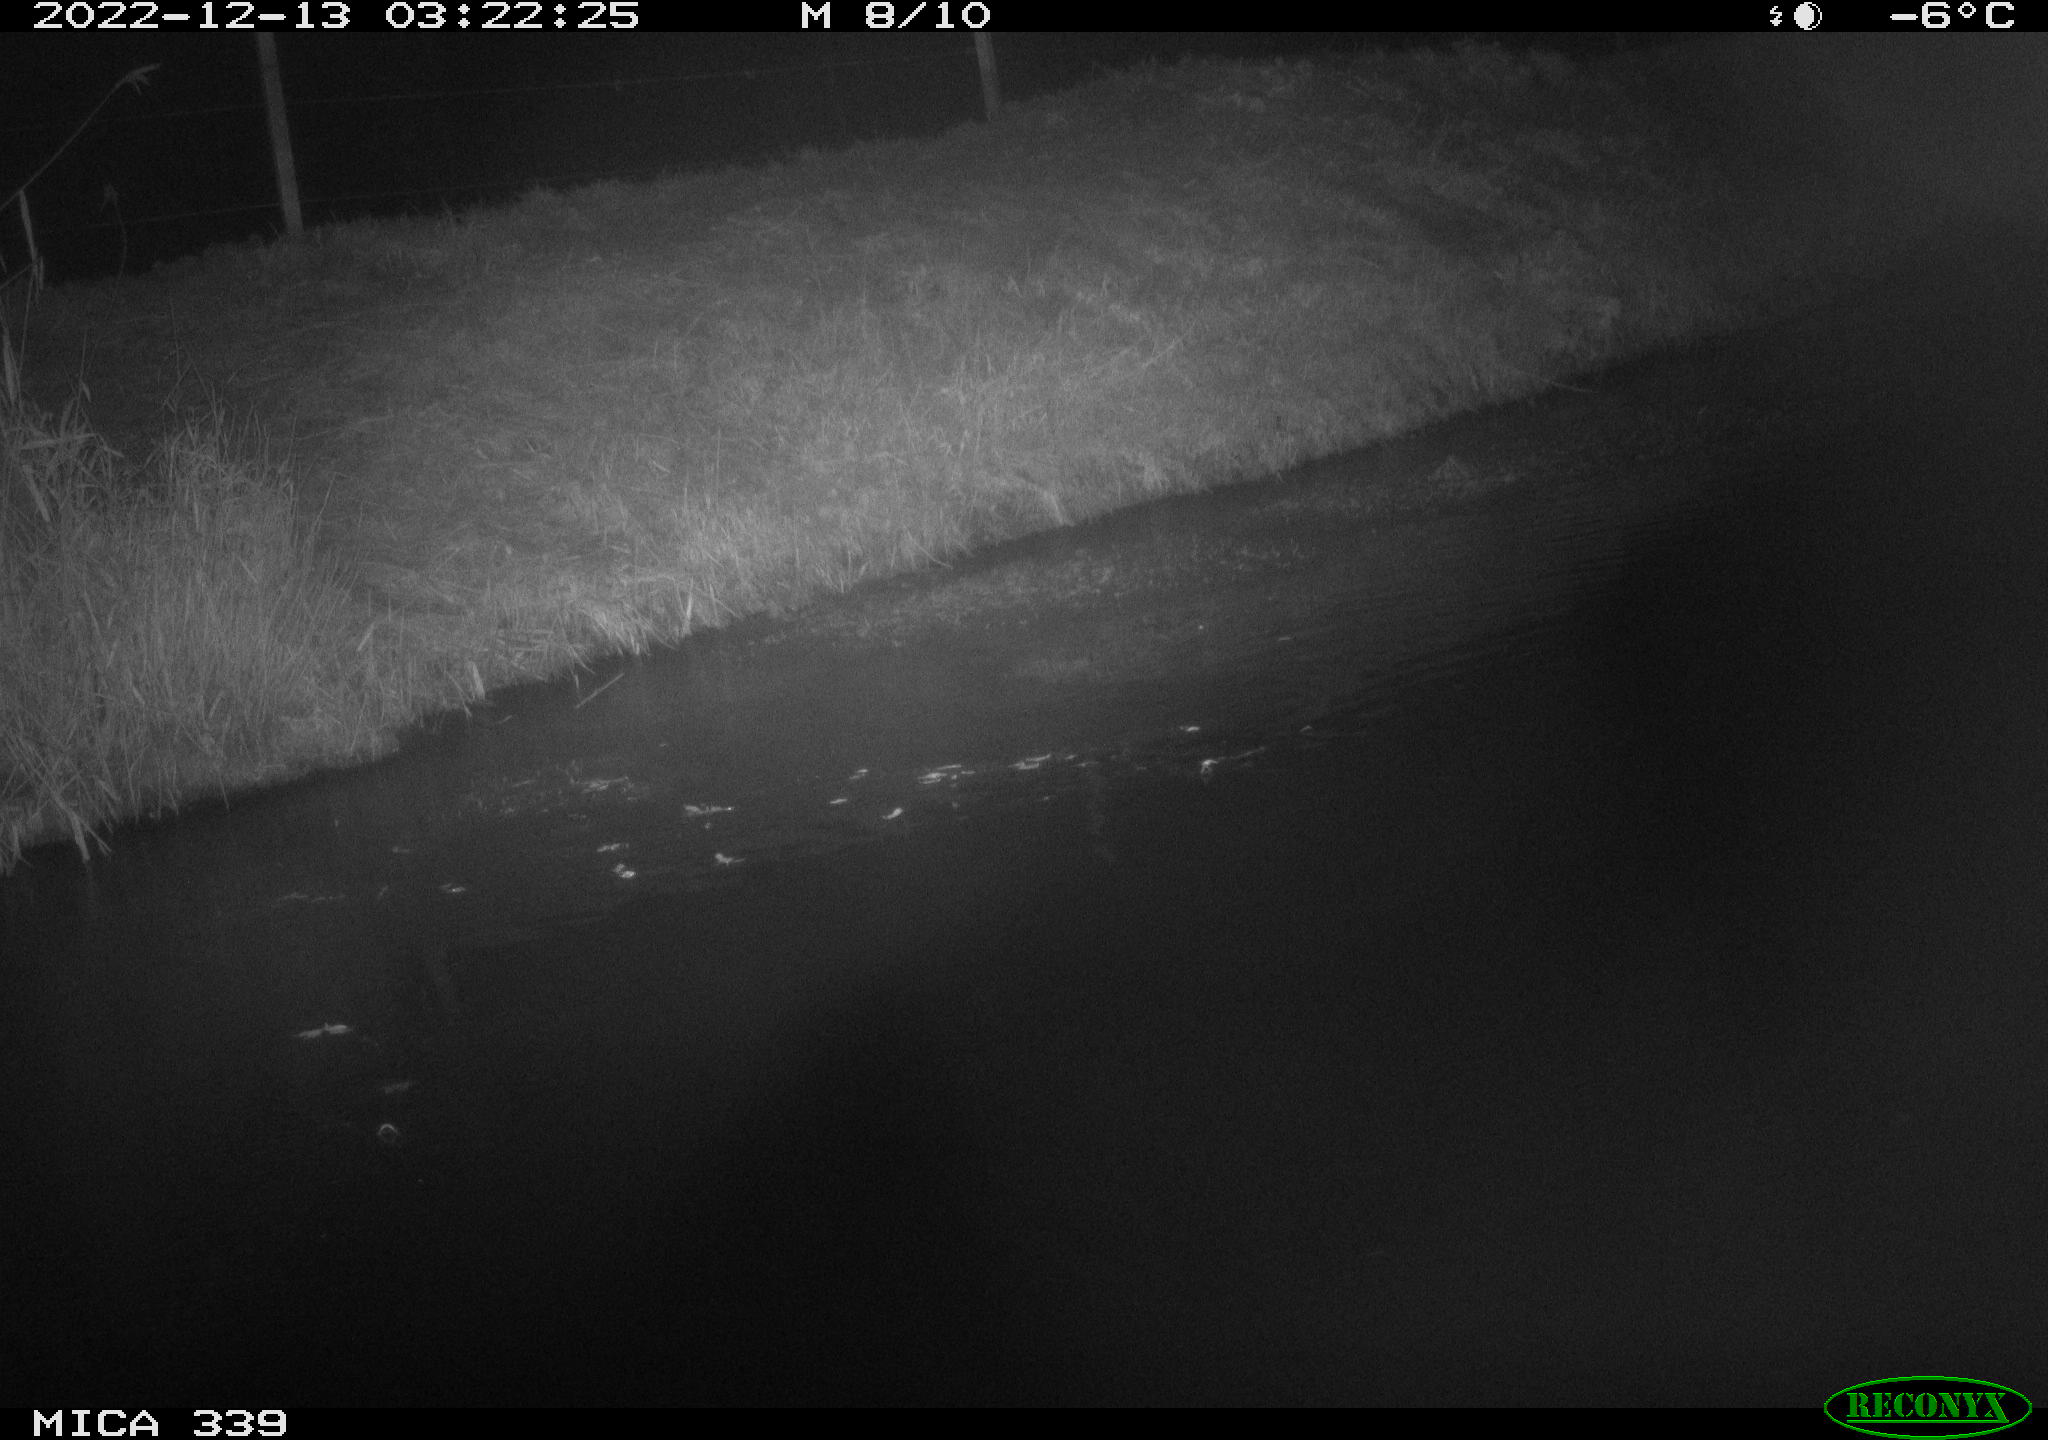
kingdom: Animalia
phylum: Chordata
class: Aves
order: Anseriformes
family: Anatidae
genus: Anas
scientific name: Anas
